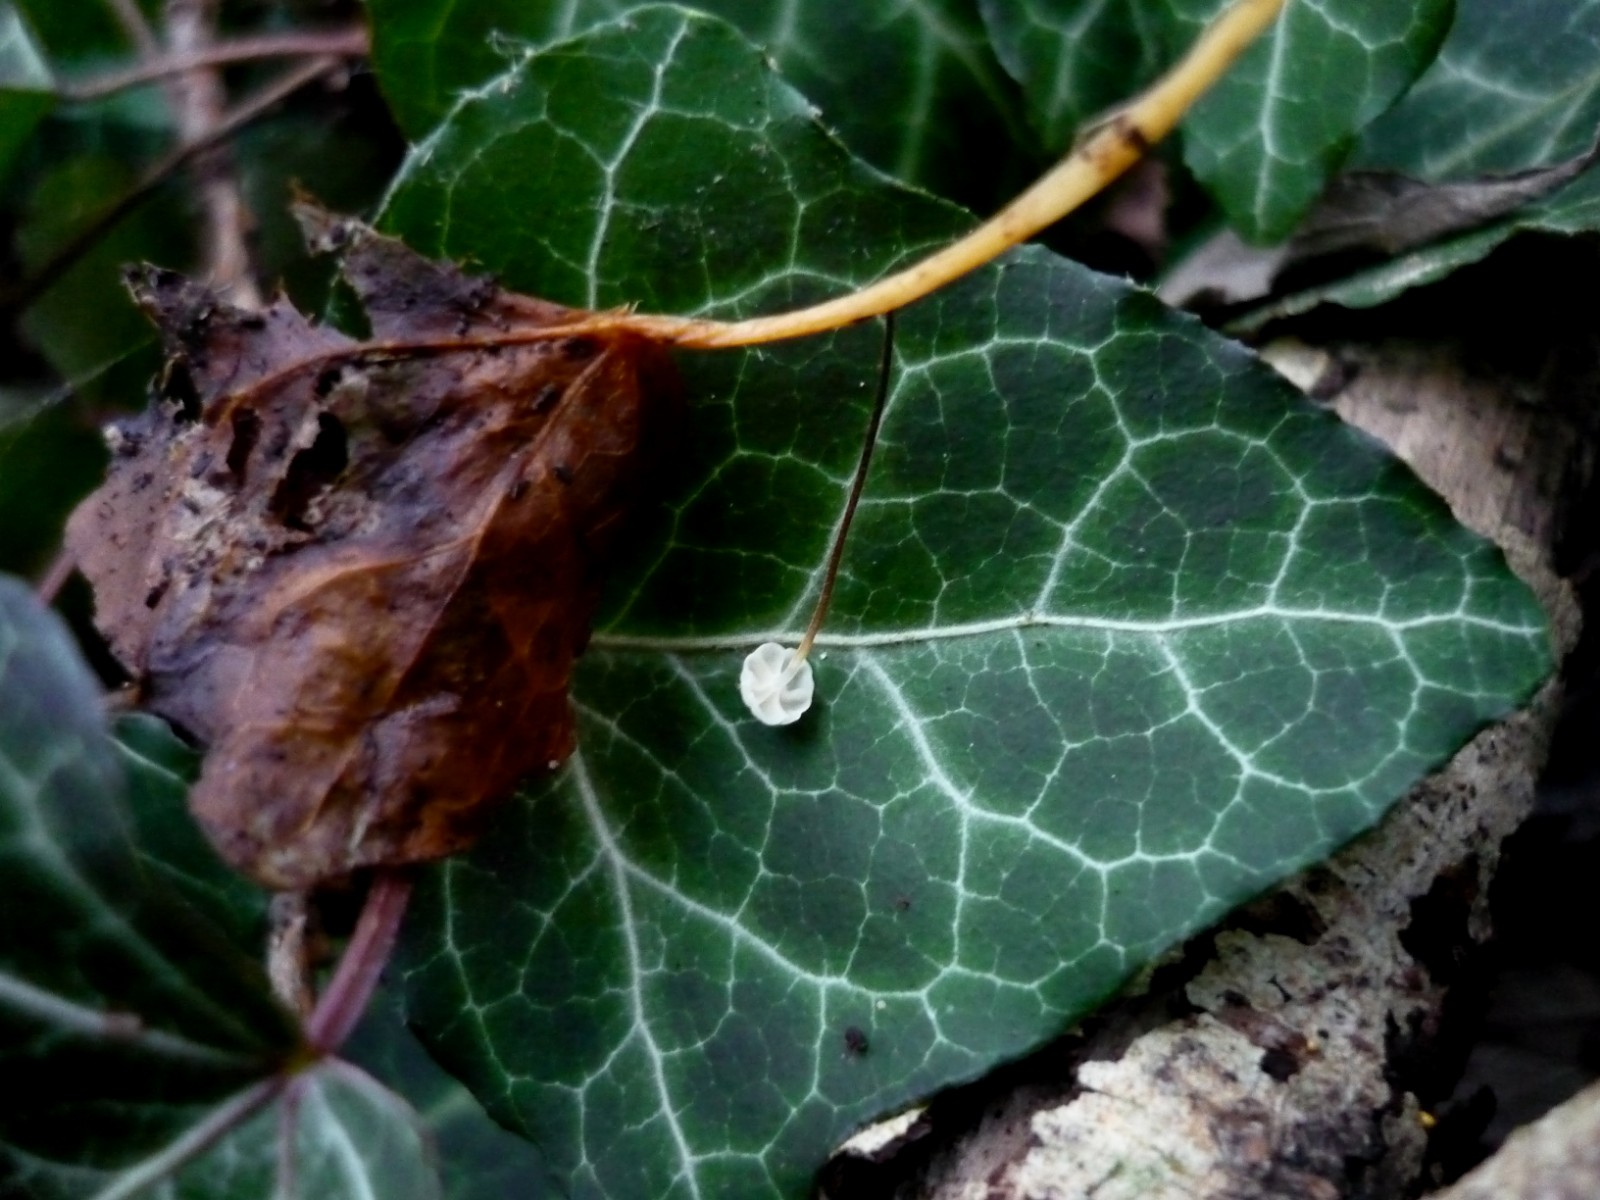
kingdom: Fungi
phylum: Basidiomycota
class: Agaricomycetes
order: Agaricales
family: Marasmiaceae
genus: Marasmius
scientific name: Marasmius epiphylloides
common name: vedbend-bruskhat
